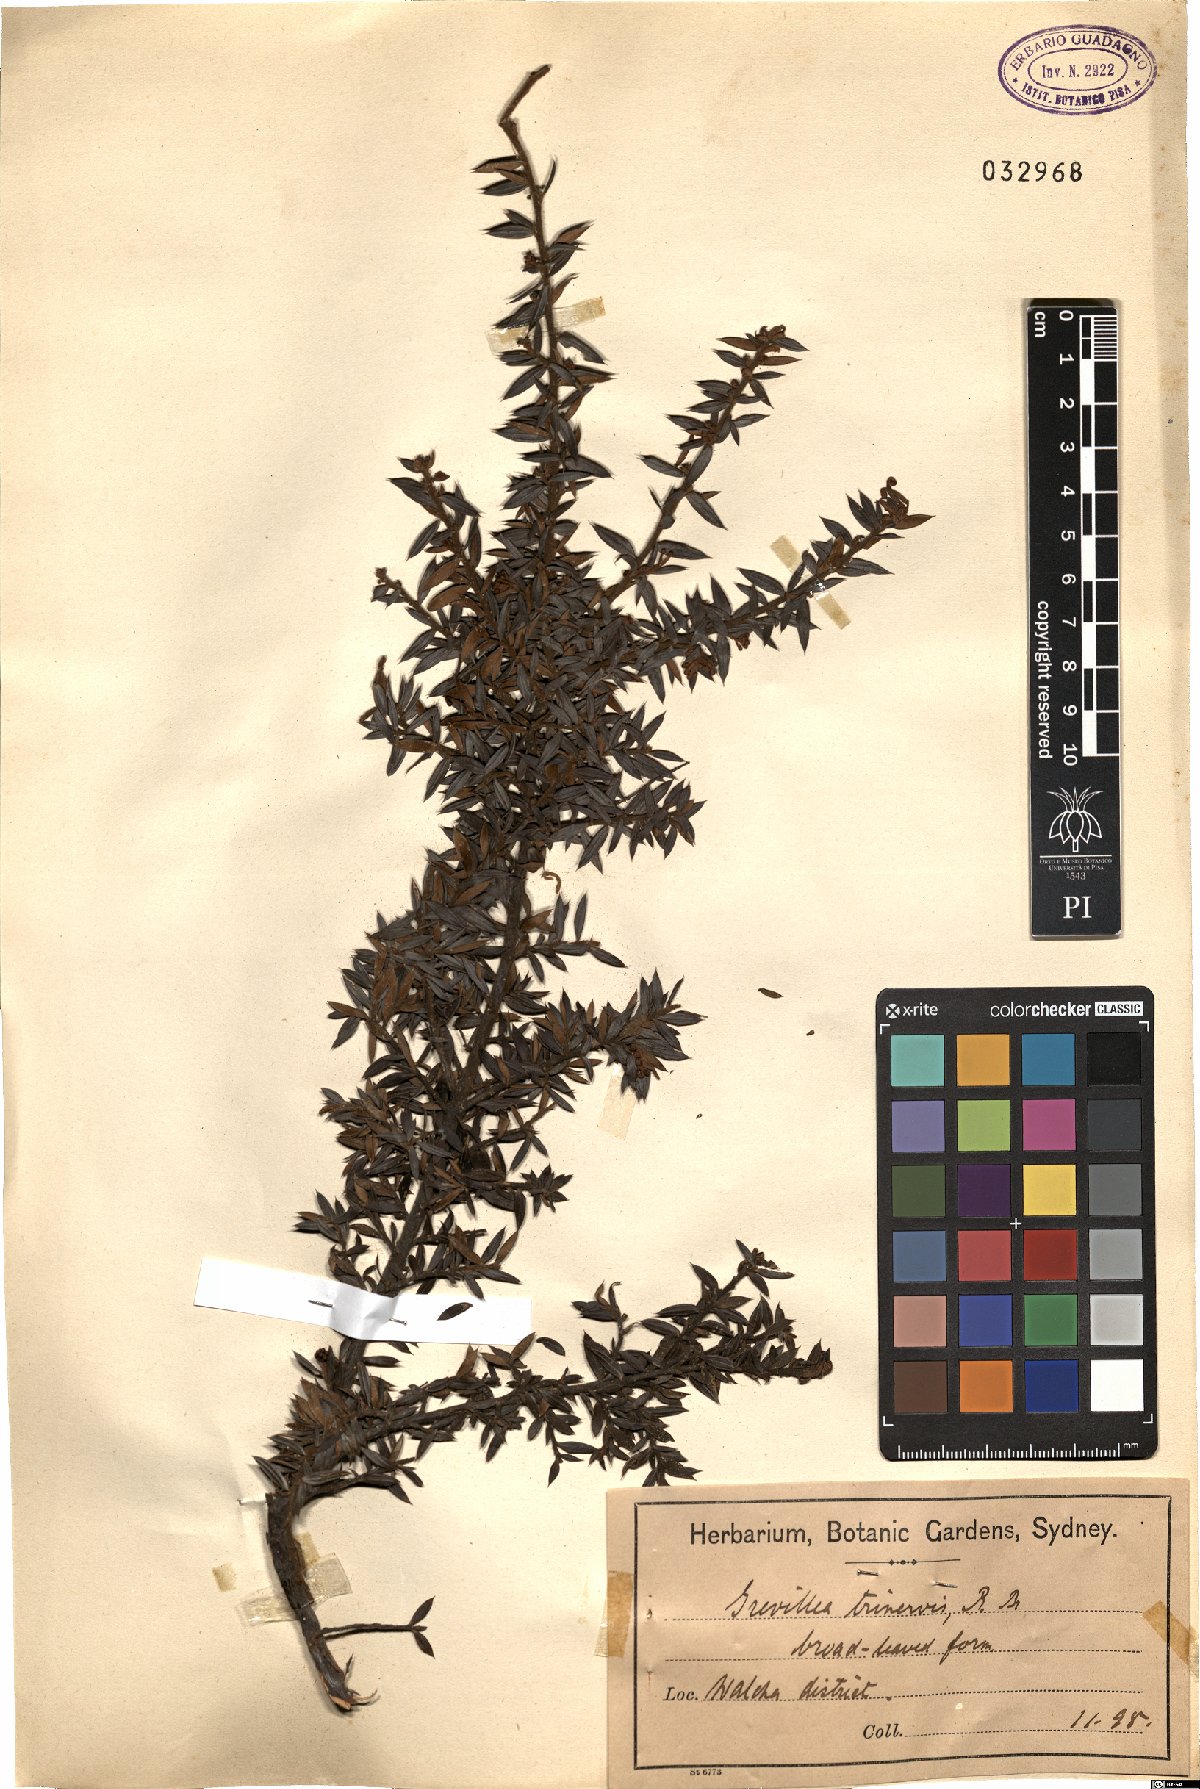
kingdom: Plantae
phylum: Tracheophyta
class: Magnoliopsida
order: Proteales
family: Proteaceae
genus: Grevillea
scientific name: Grevillea juniperina
